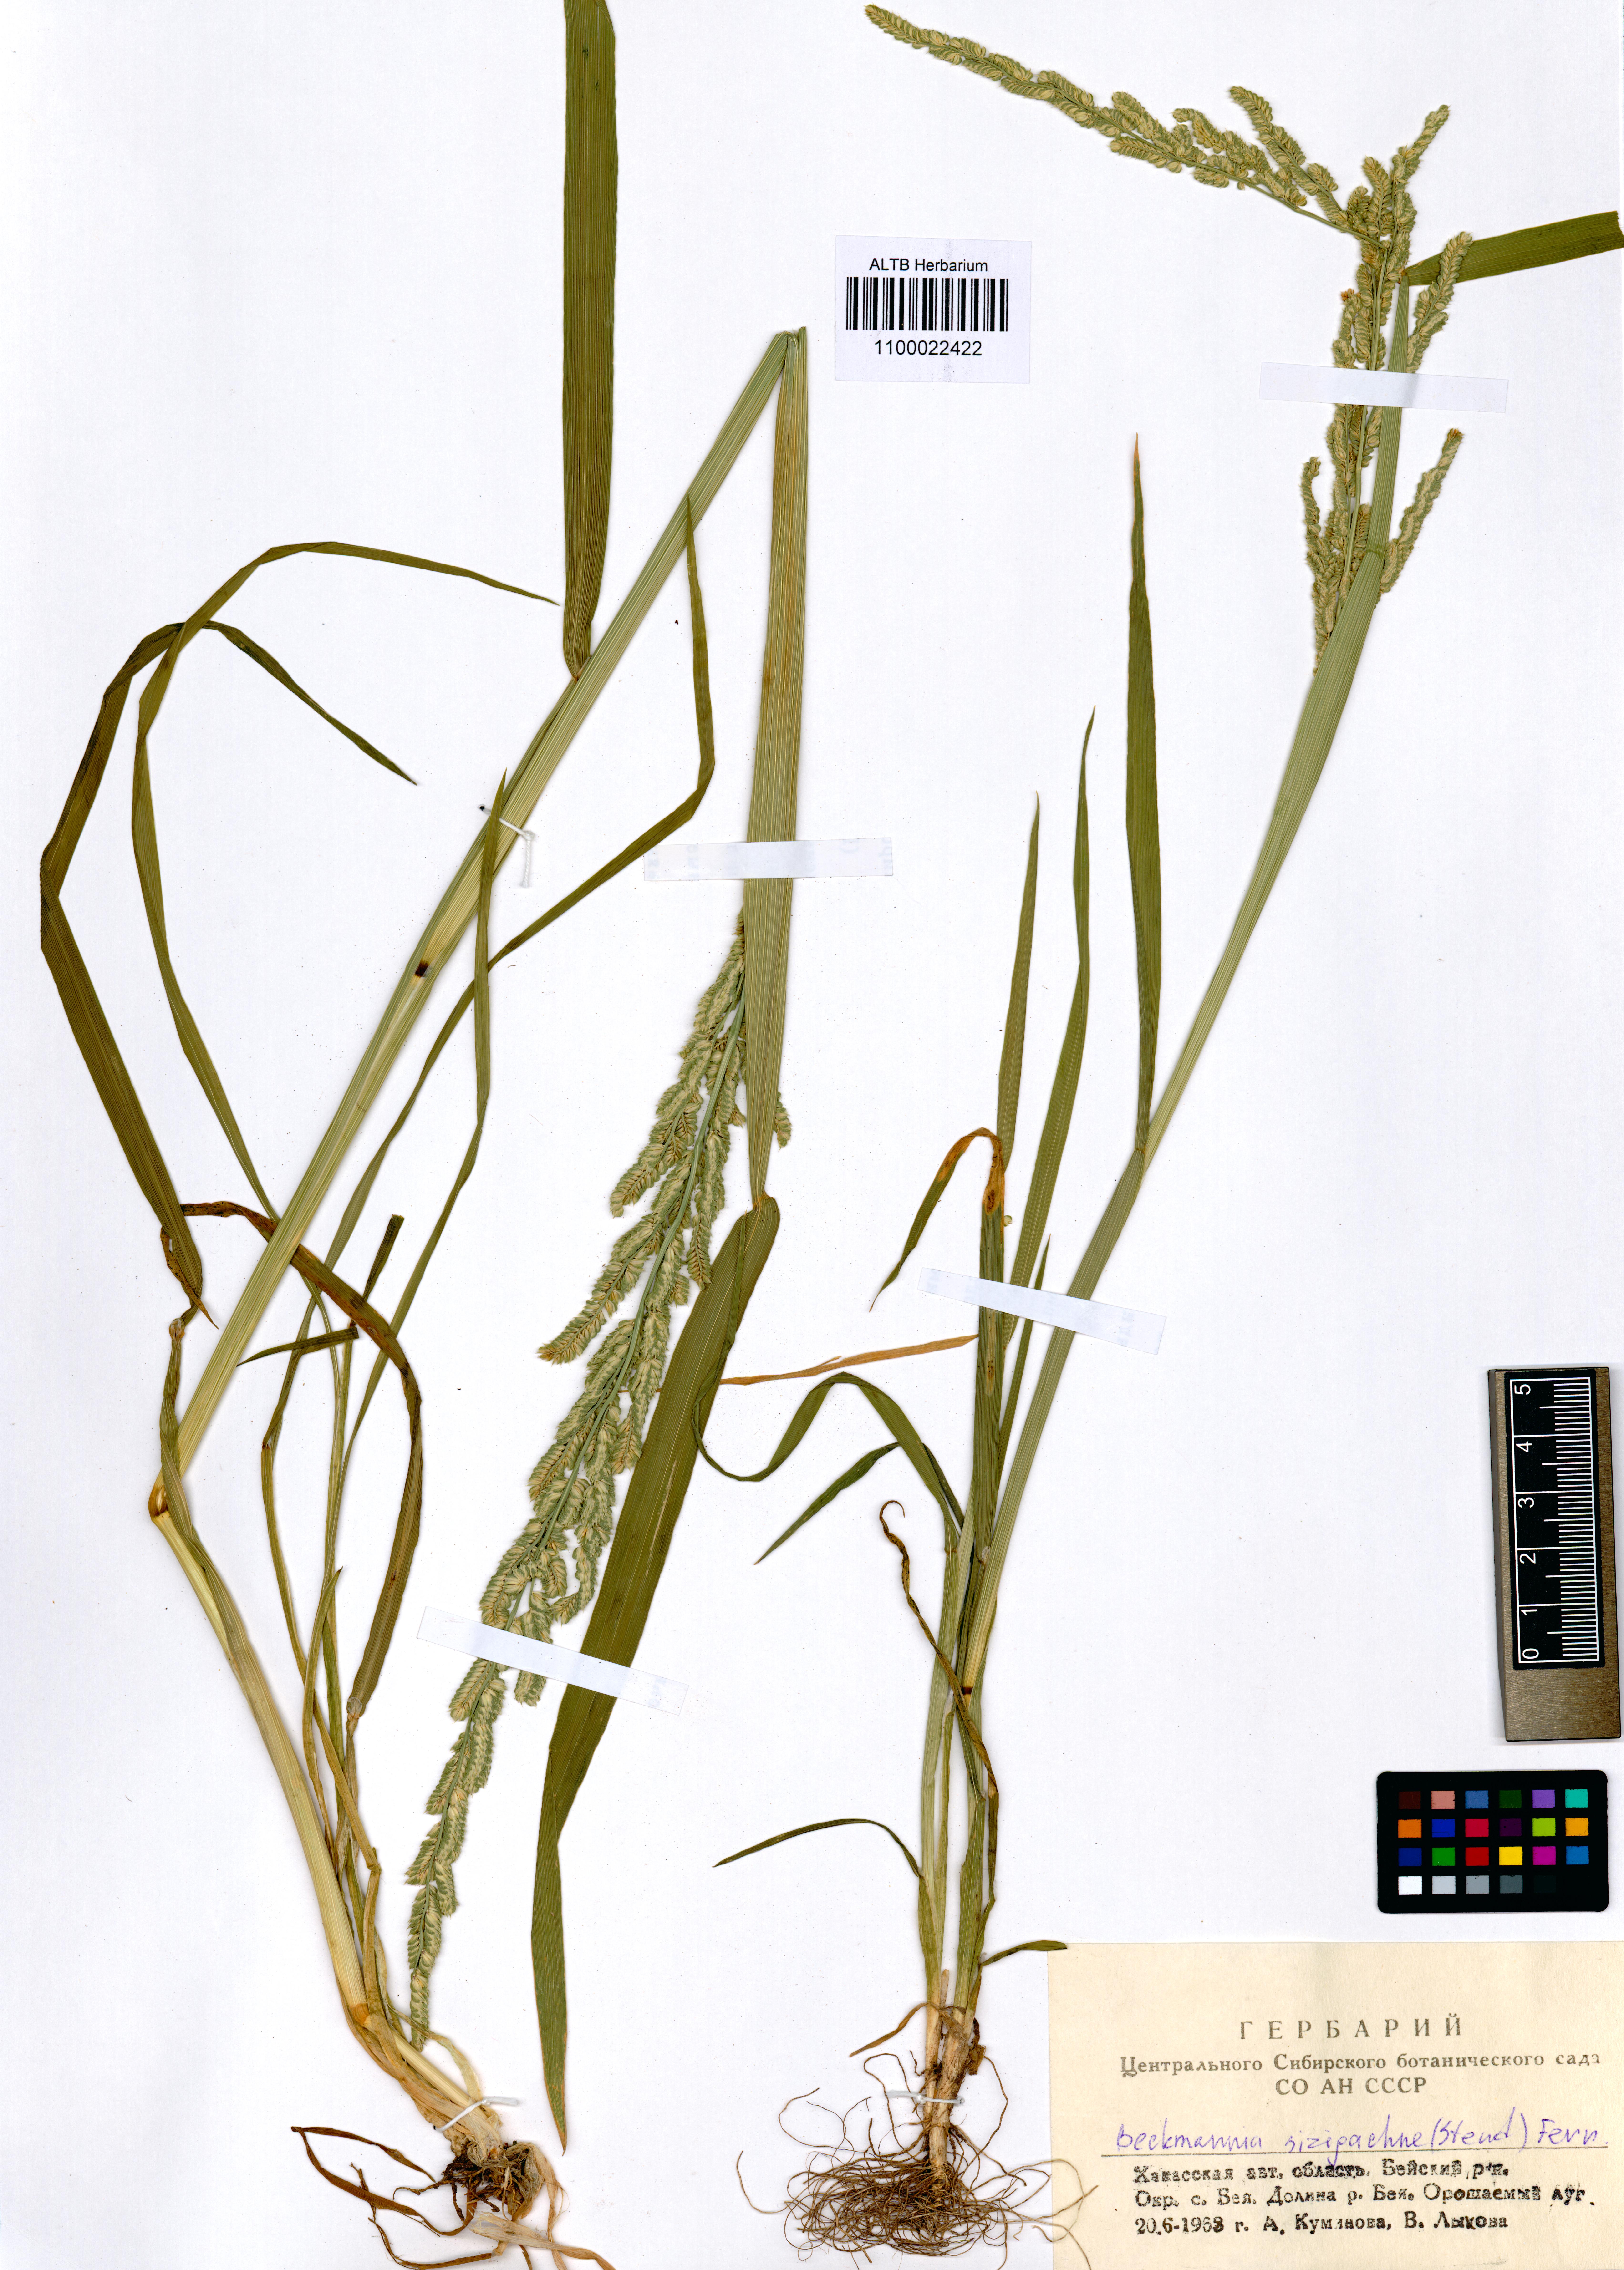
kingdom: Plantae
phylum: Tracheophyta
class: Liliopsida
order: Poales
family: Poaceae
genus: Beckmannia
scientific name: Beckmannia syzigachne
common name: American slough-grass
